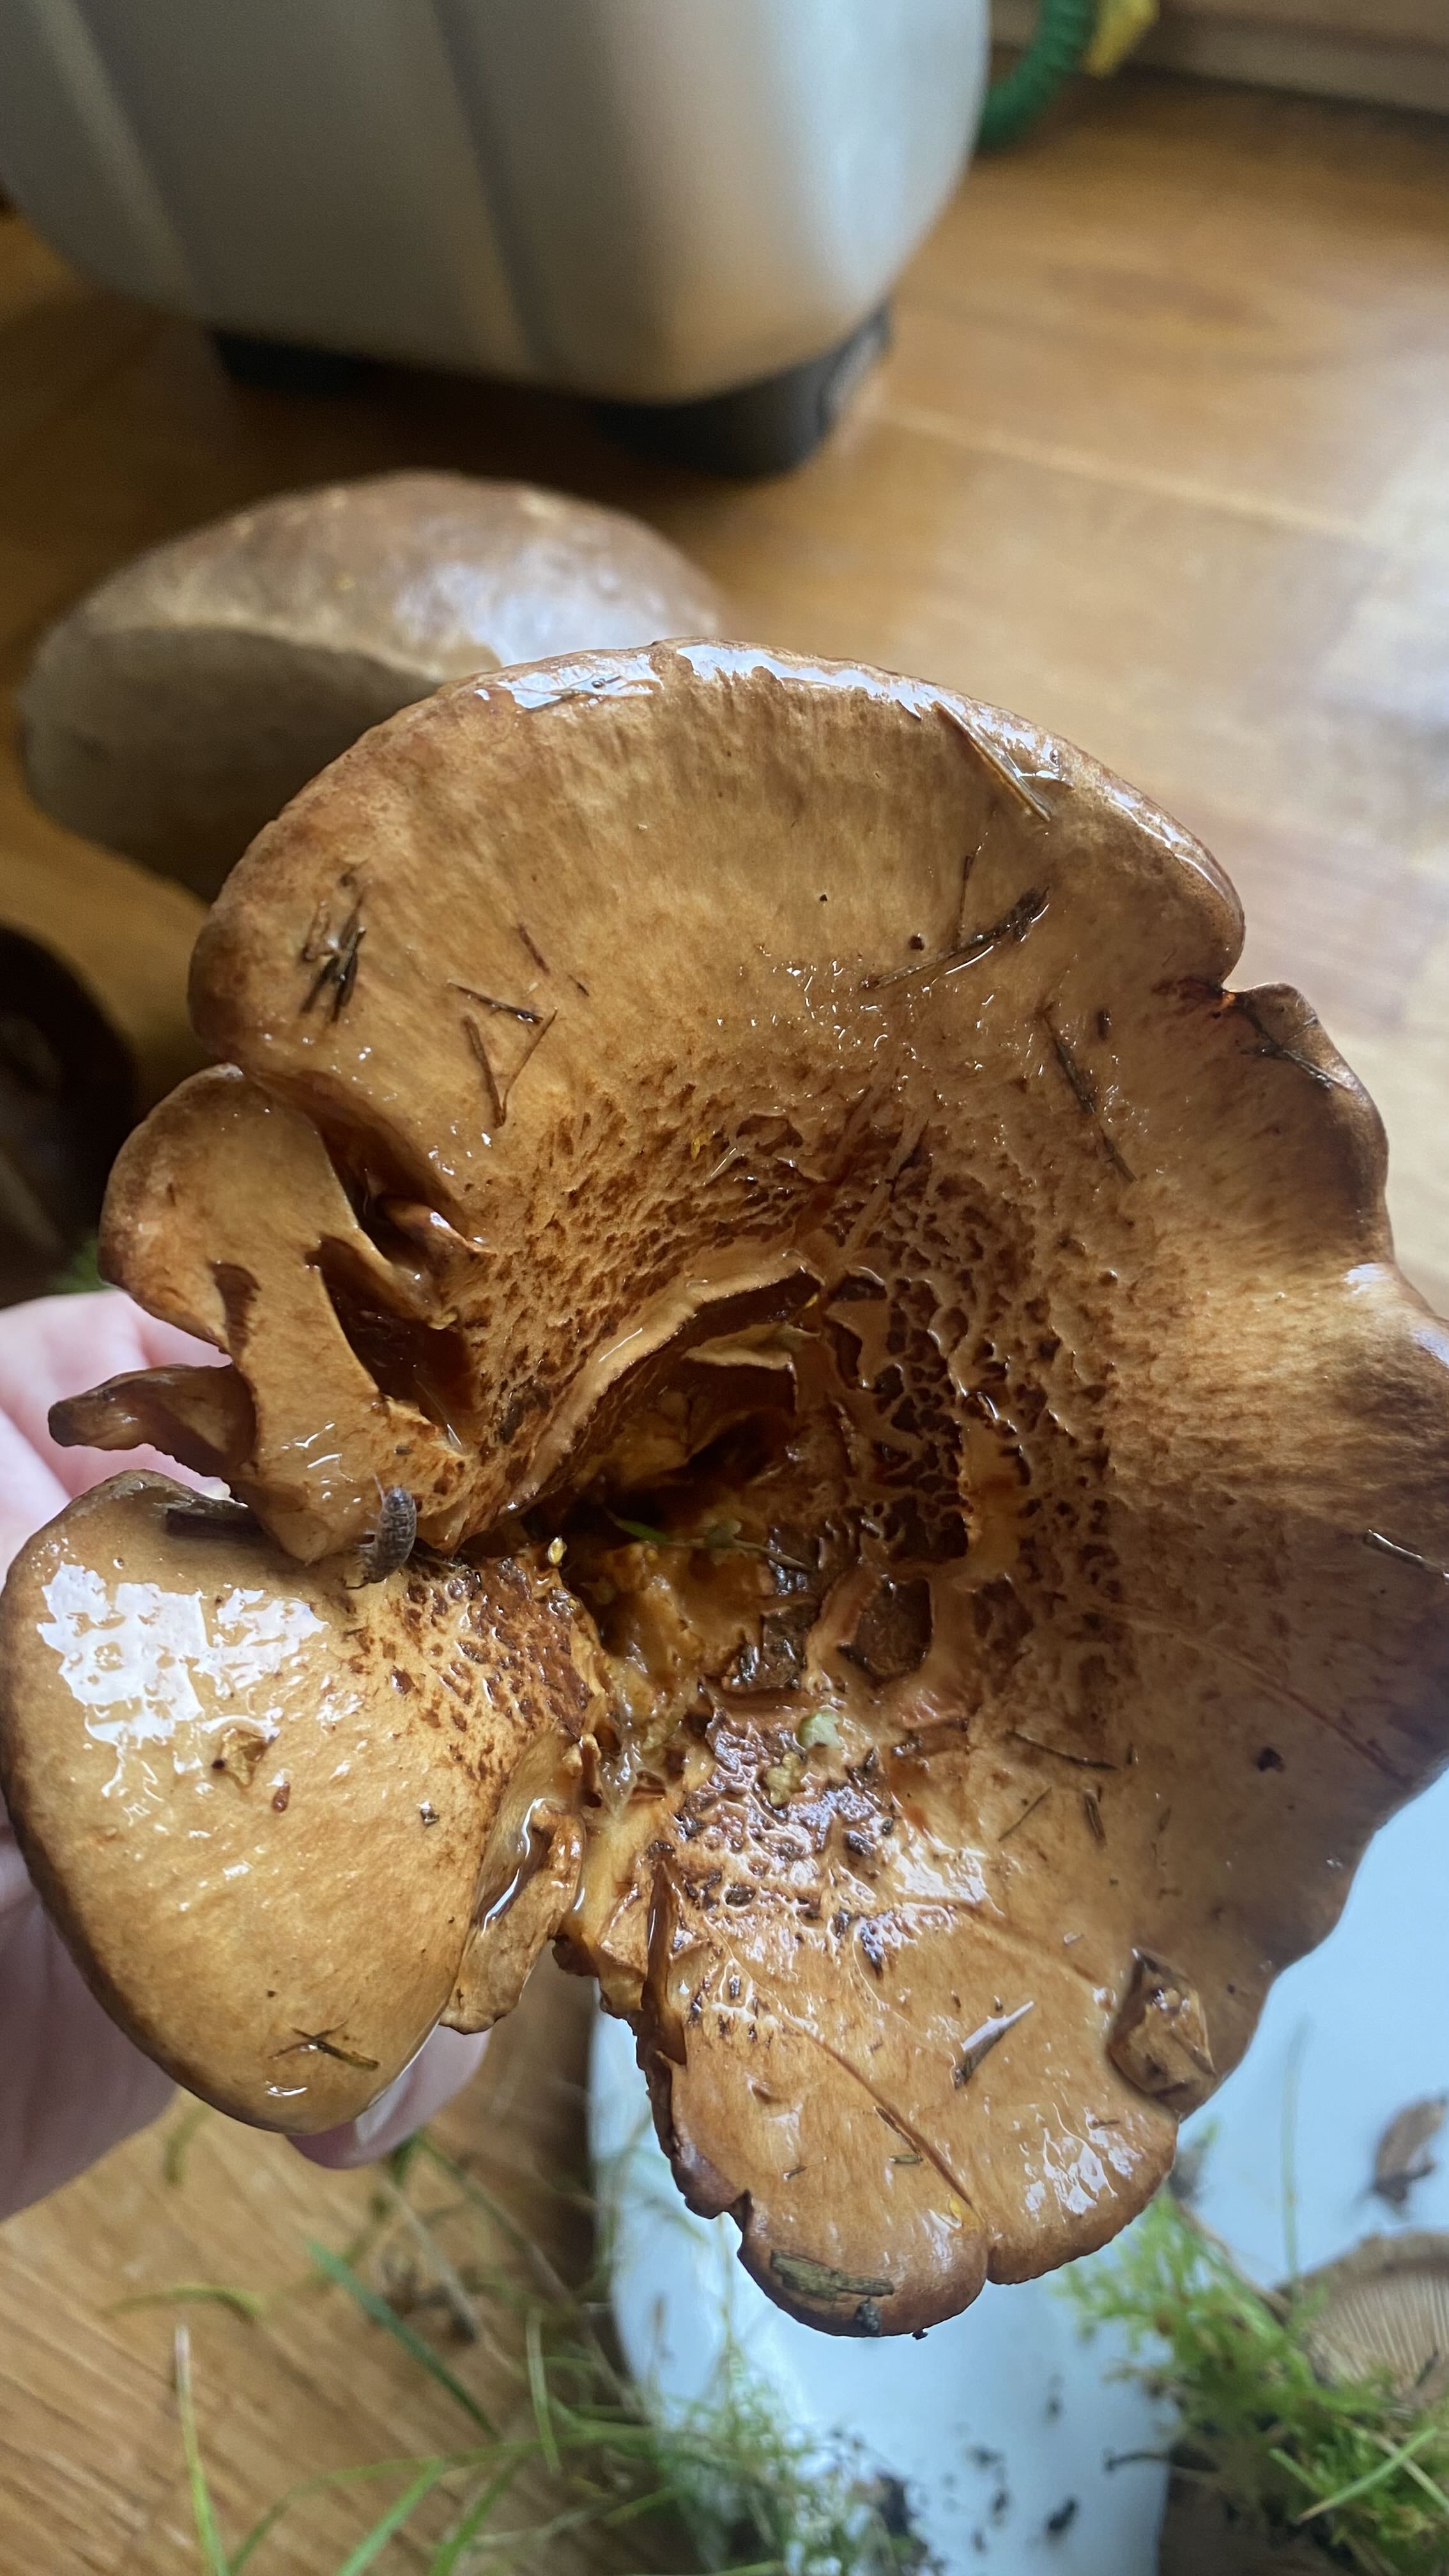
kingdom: Fungi
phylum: Basidiomycota
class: Agaricomycetes
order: Boletales
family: Paxillaceae
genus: Paxillus
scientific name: Paxillus involutus
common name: almindelig netbladhat
